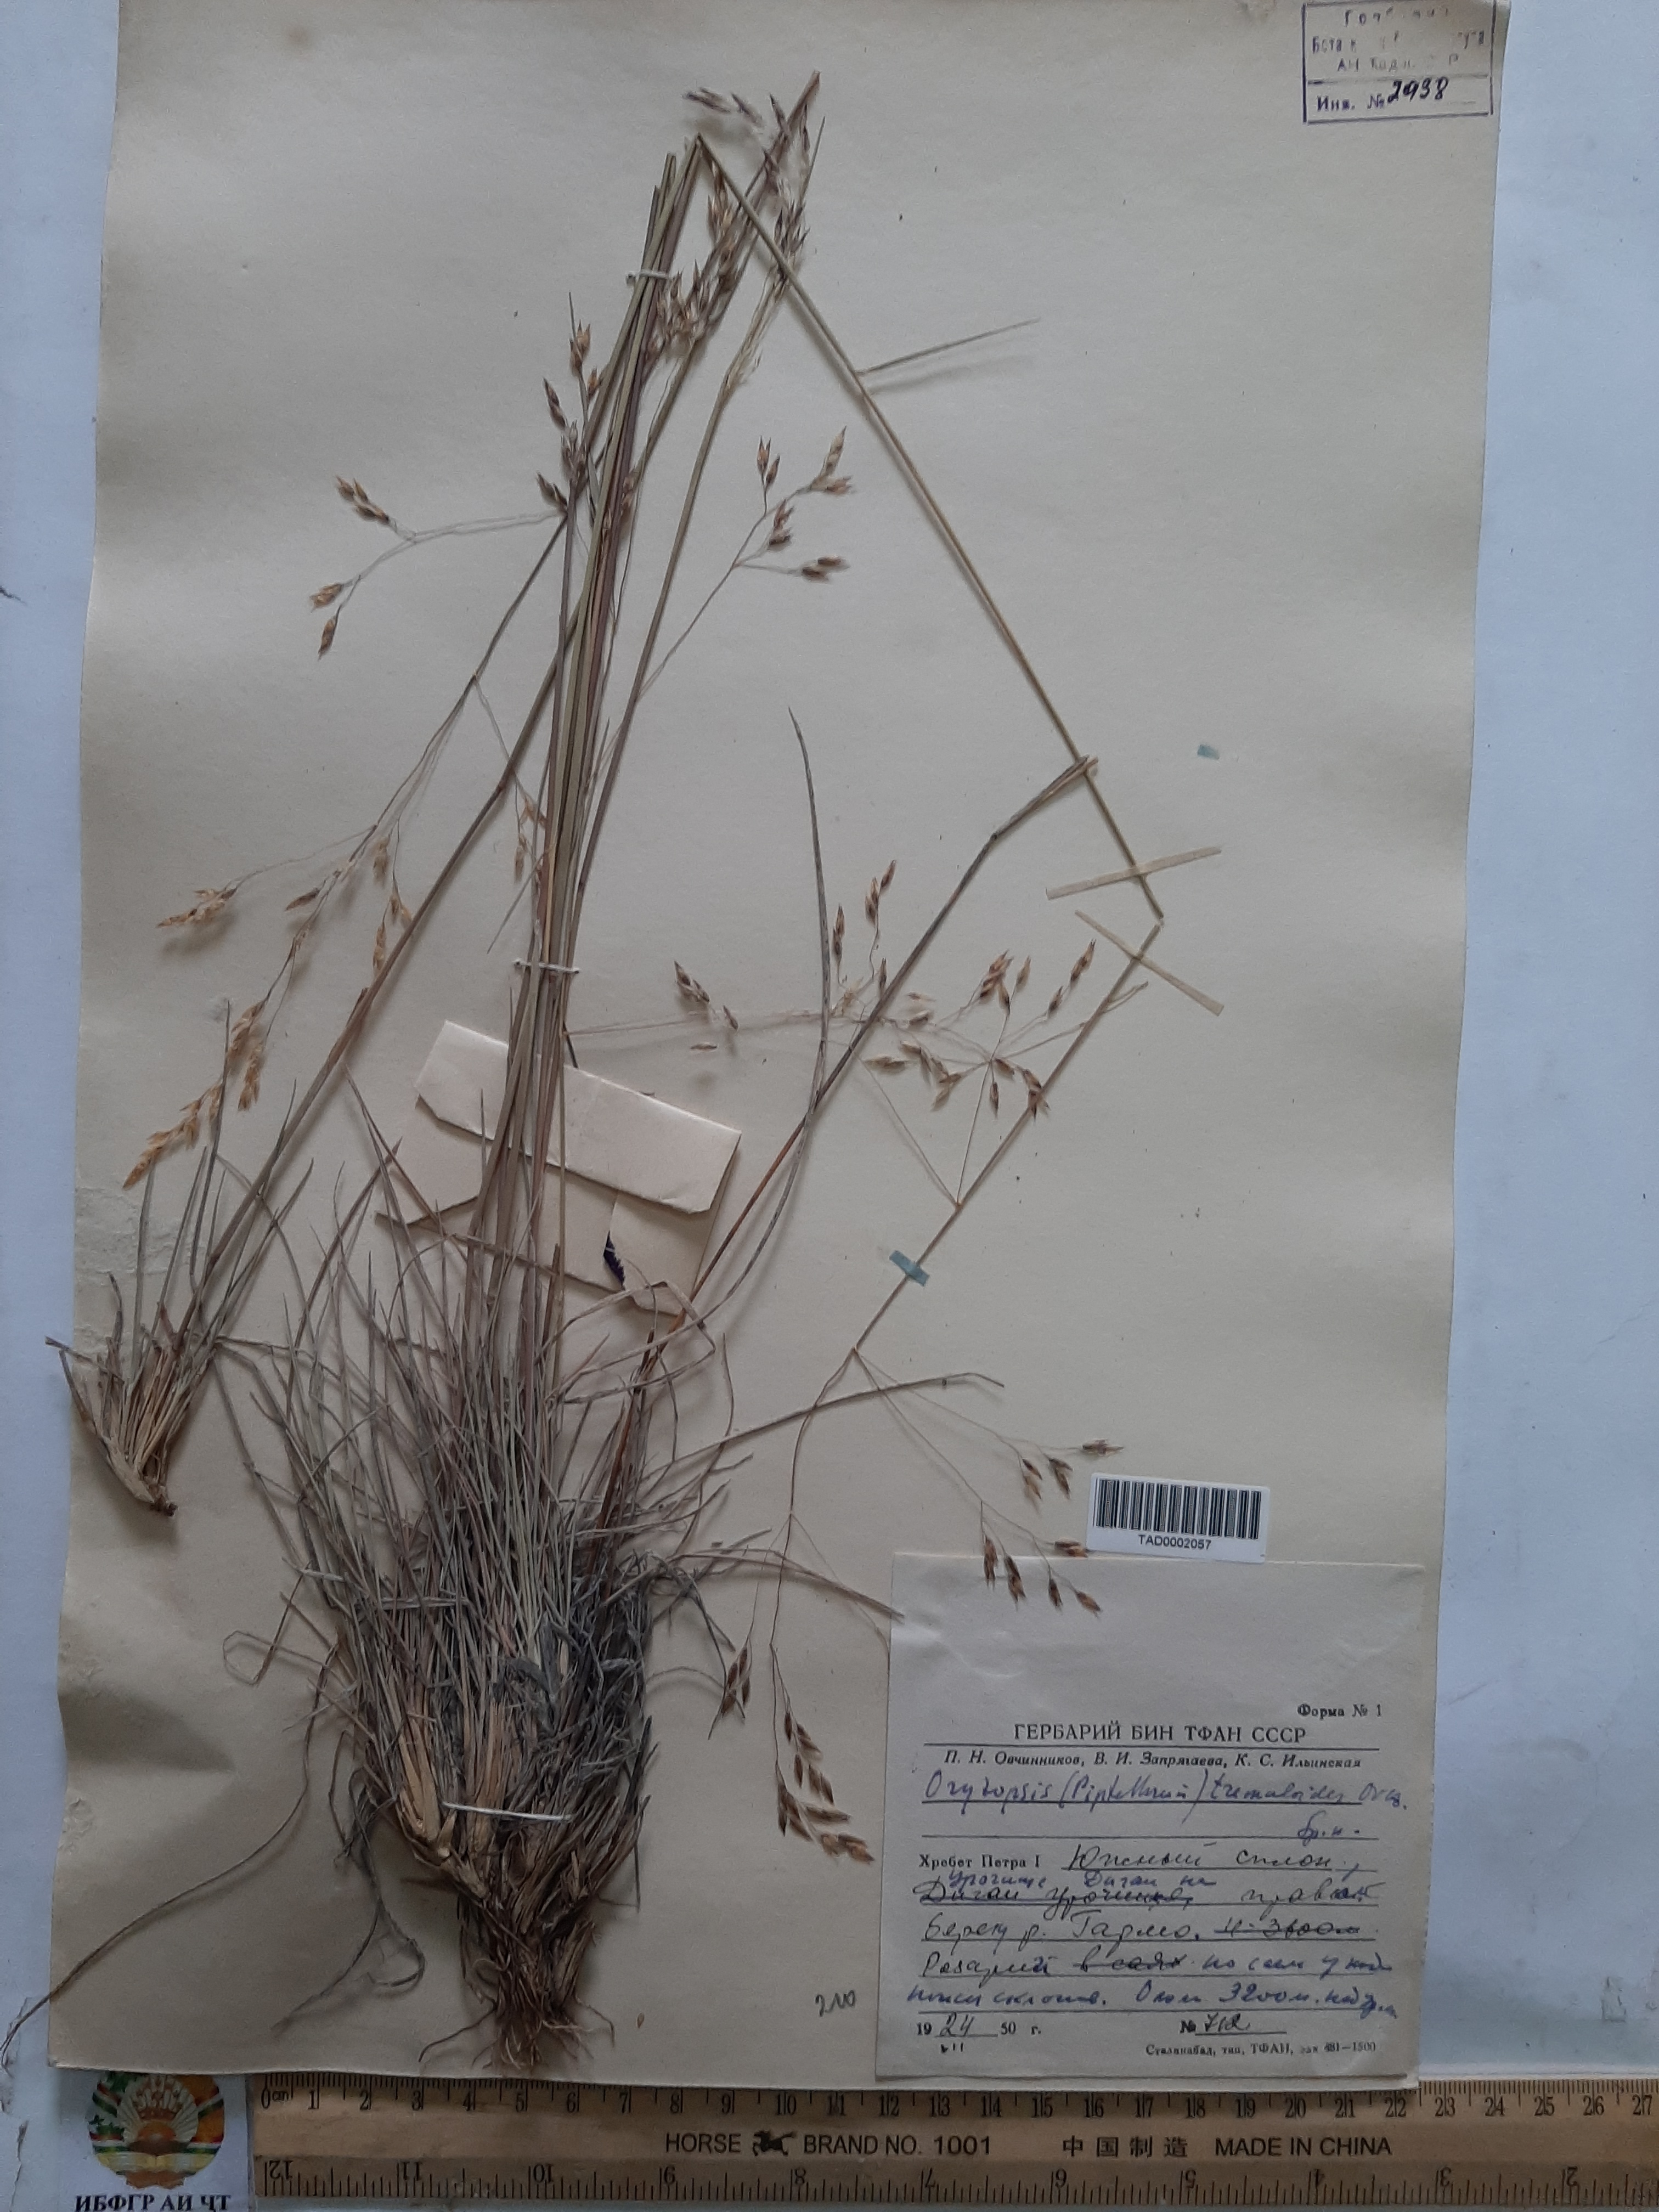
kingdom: Plantae
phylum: Tracheophyta
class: Liliopsida
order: Poales
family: Poaceae
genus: Piptatherum
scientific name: Piptatherum hilariae
